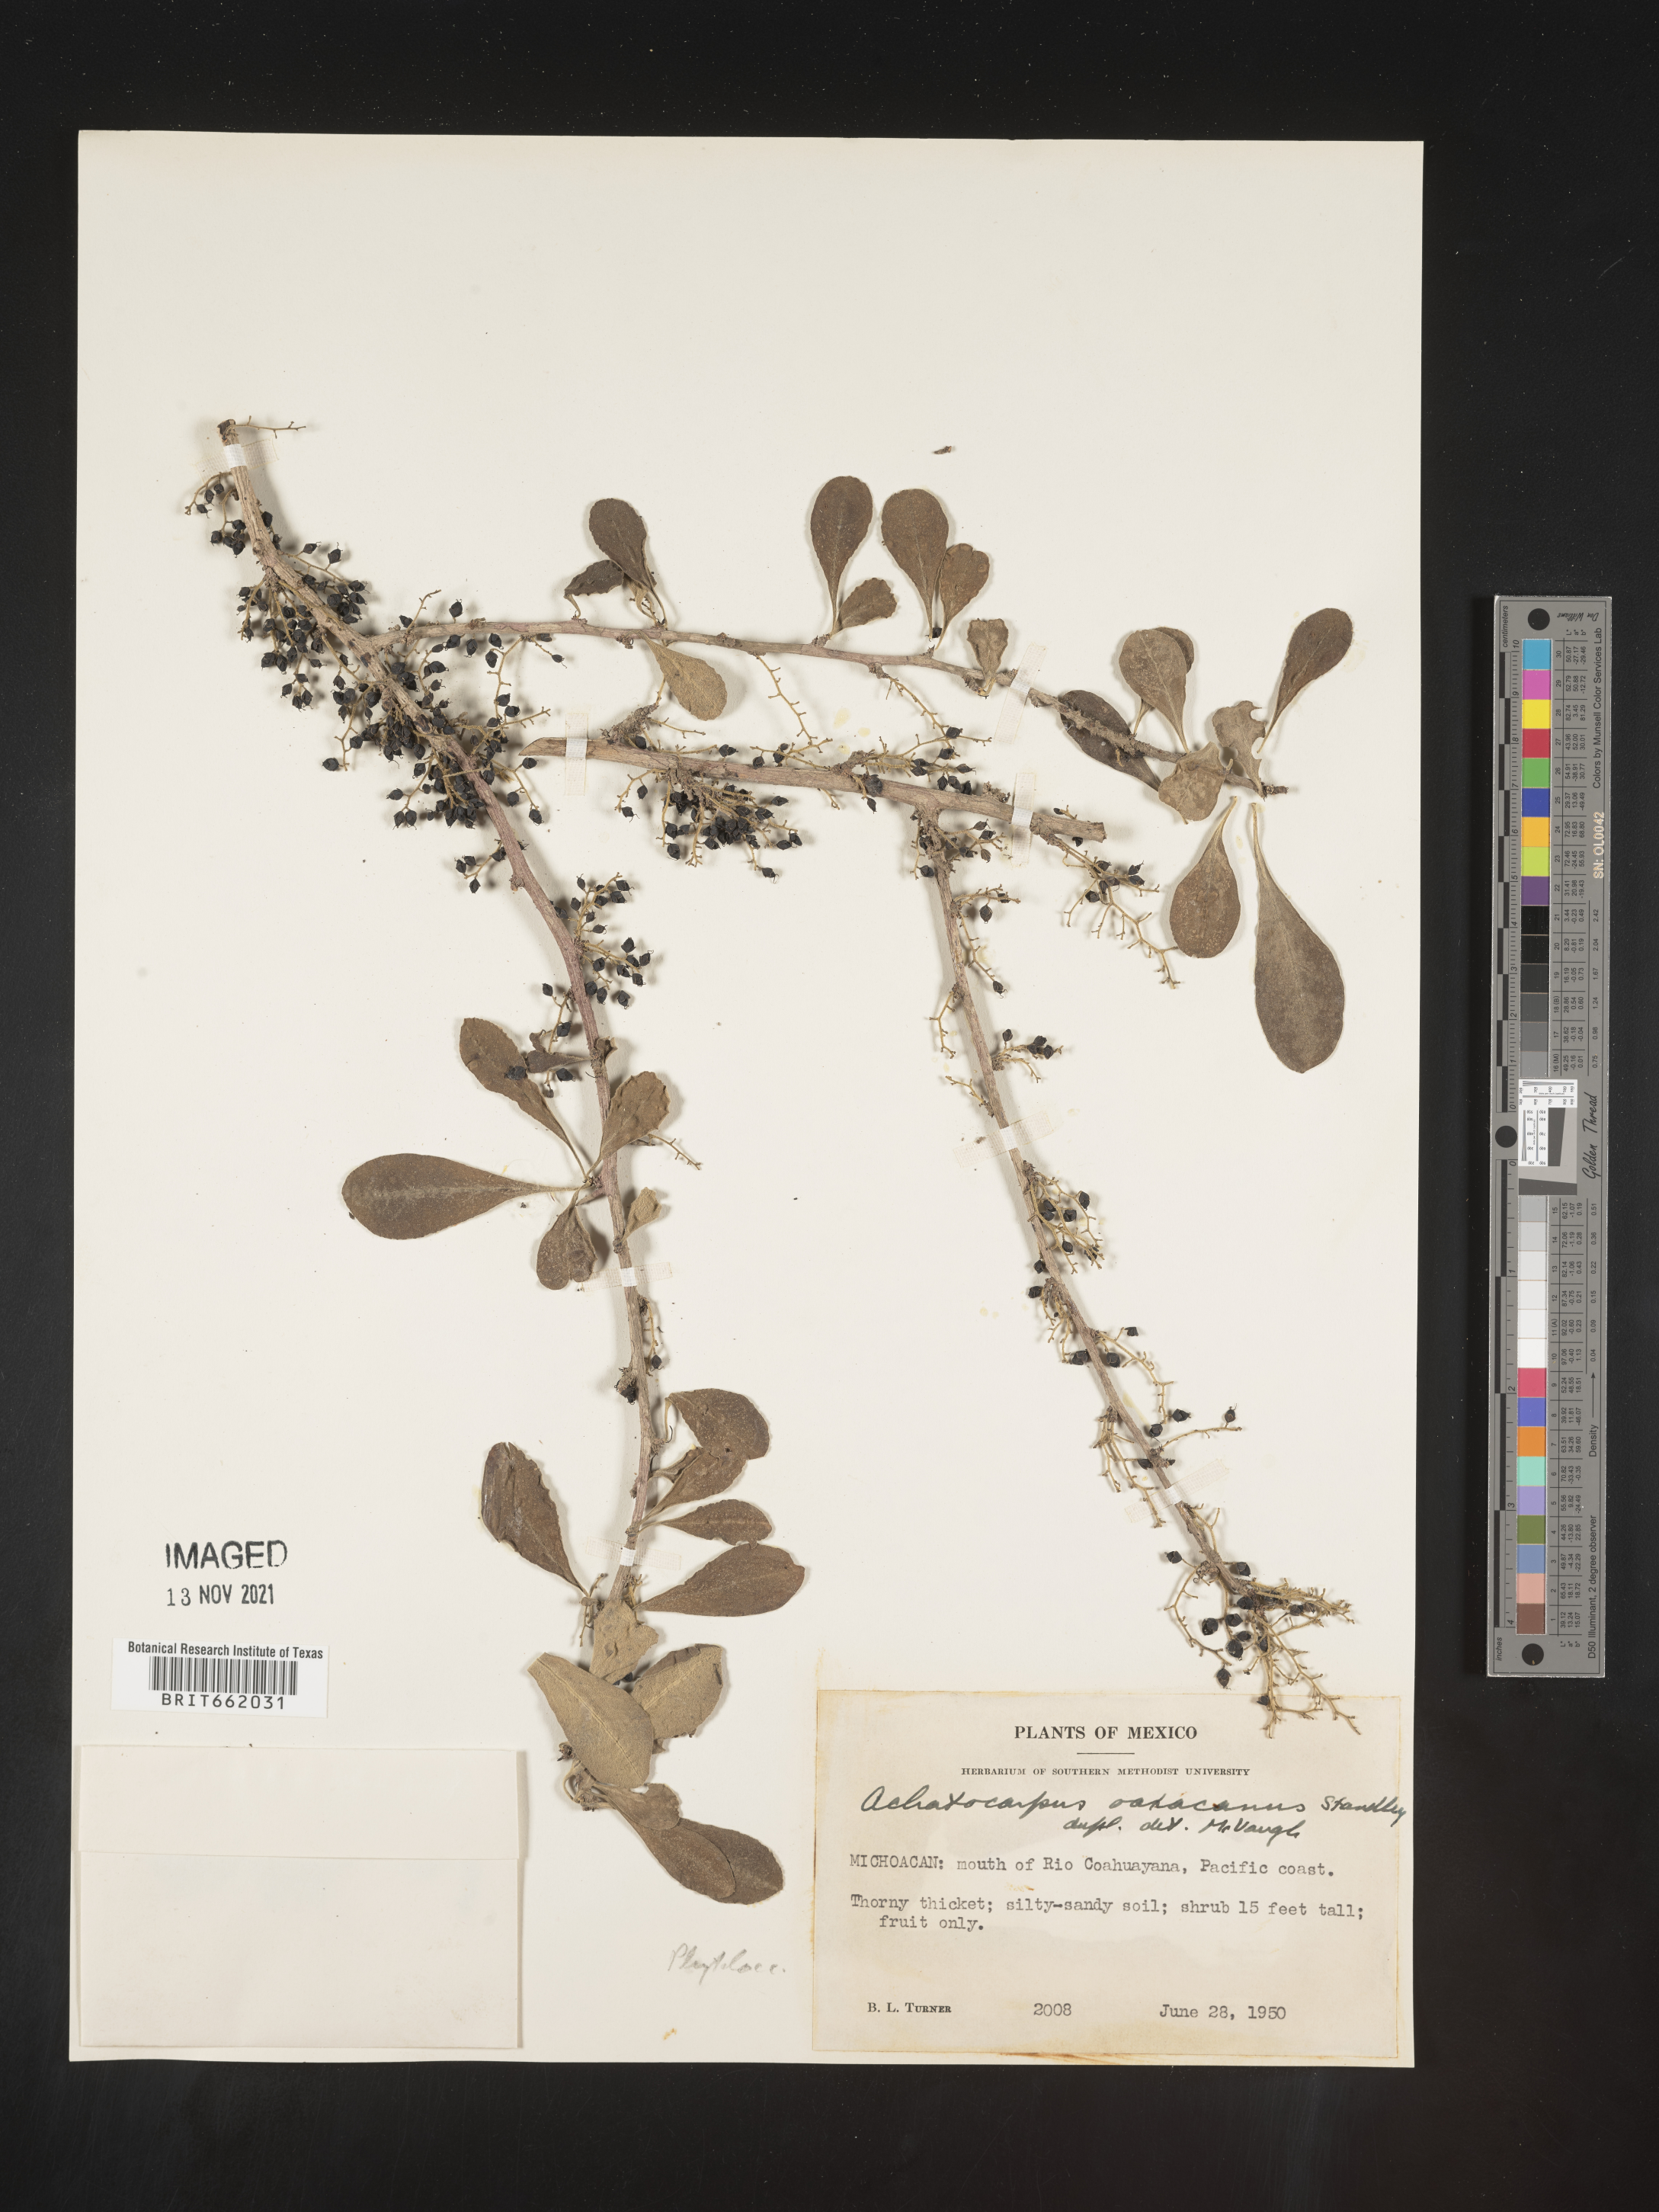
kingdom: Plantae
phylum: Tracheophyta
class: Magnoliopsida
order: Caryophyllales
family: Achatocarpaceae
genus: Achatocarpus
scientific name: Achatocarpus
